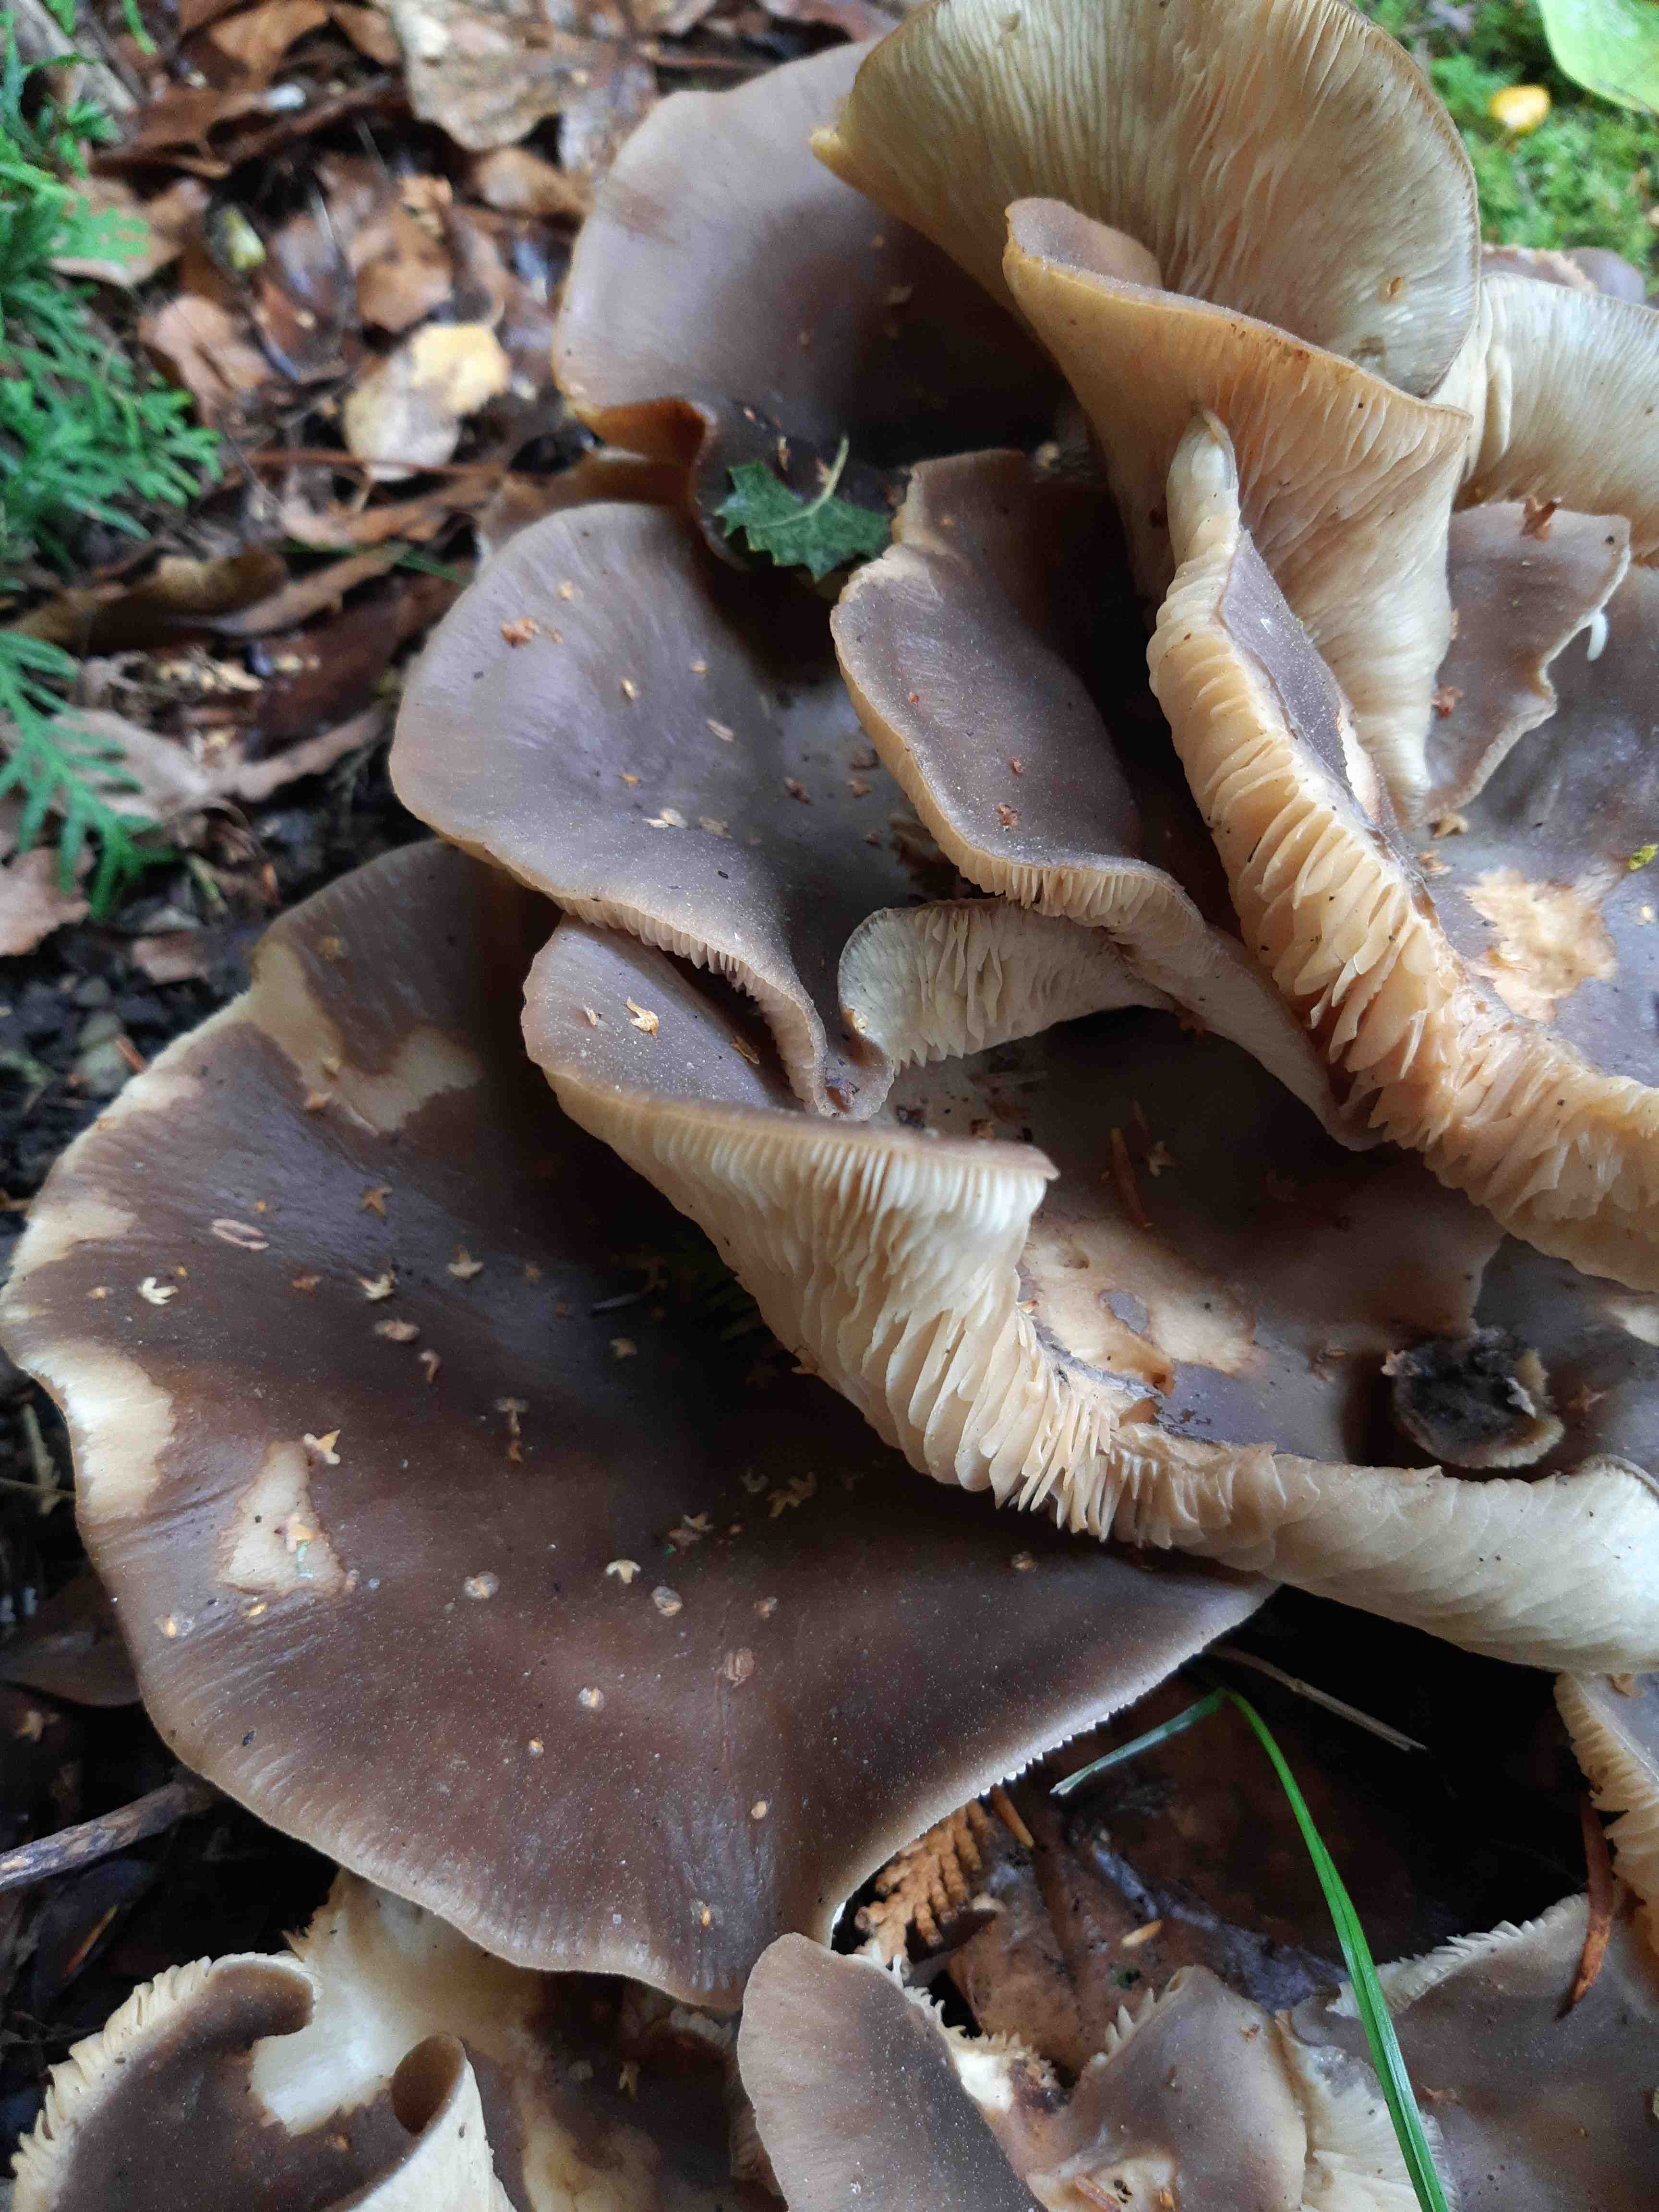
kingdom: Fungi
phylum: Basidiomycota
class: Agaricomycetes
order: Agaricales
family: Lyophyllaceae
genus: Lyophyllum
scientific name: Lyophyllum
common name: gråblad
